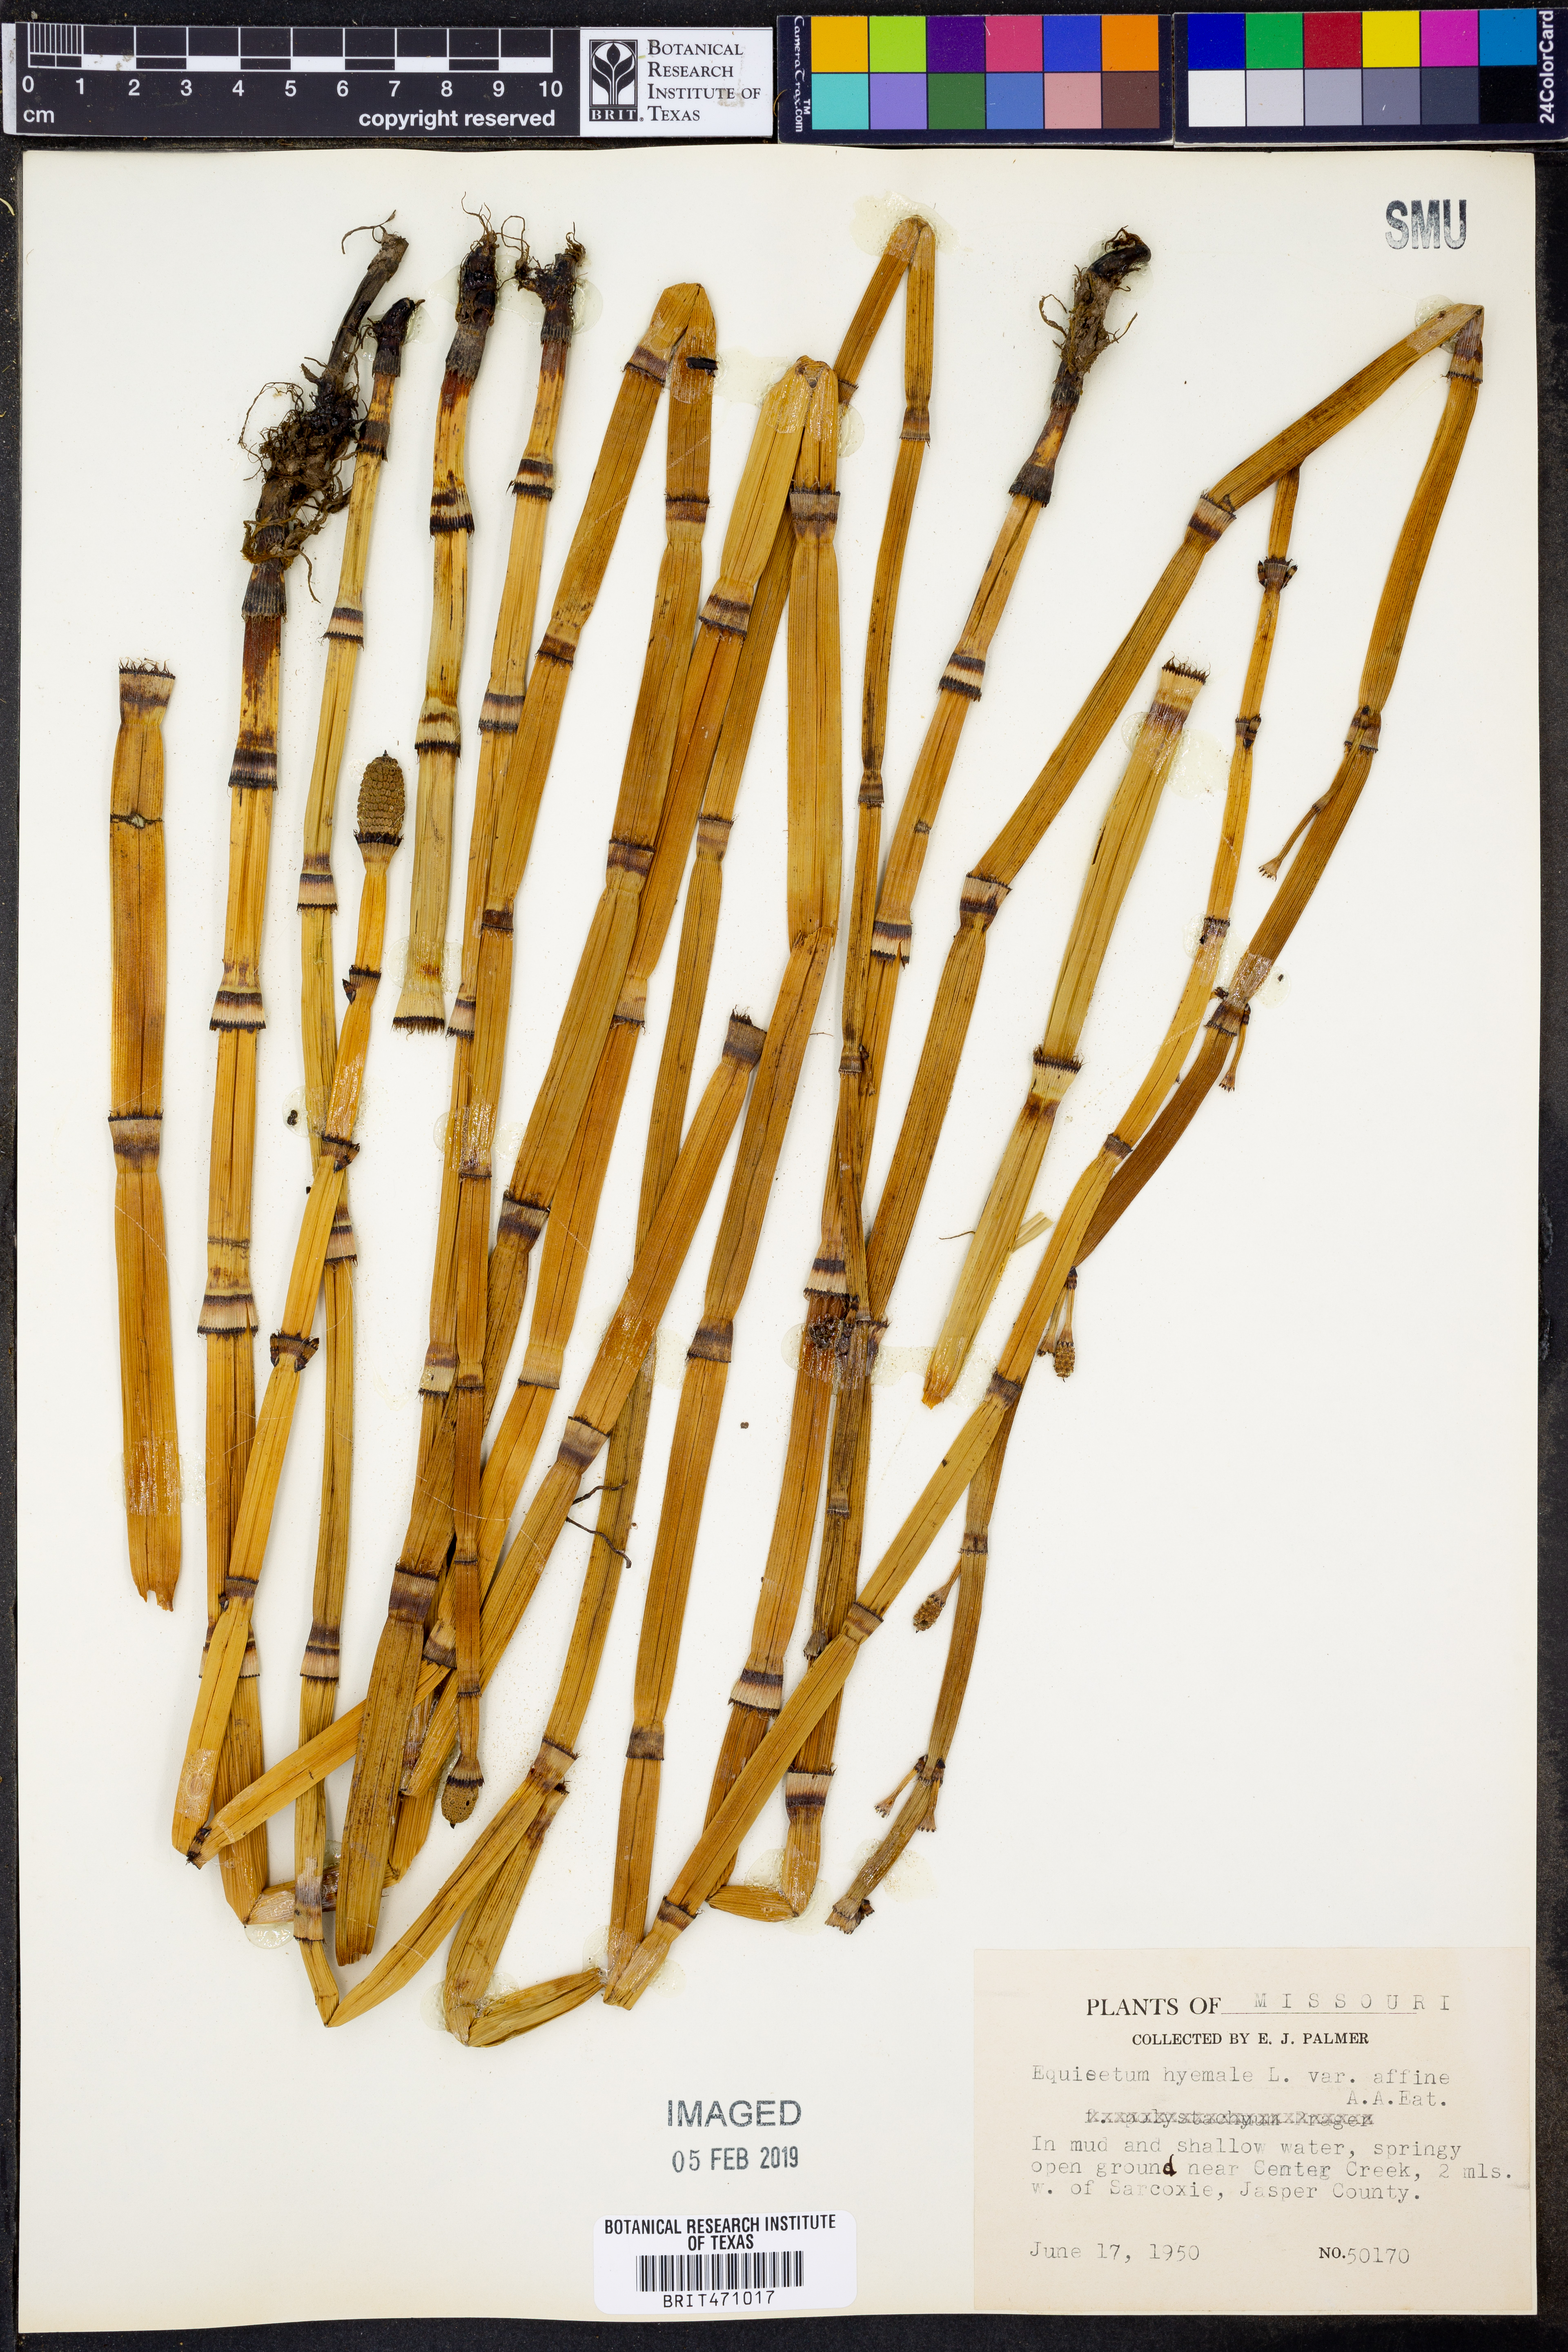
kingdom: Plantae
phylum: Tracheophyta
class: Polypodiopsida
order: Equisetales
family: Equisetaceae
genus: Equisetum
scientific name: Equisetum praealtum
